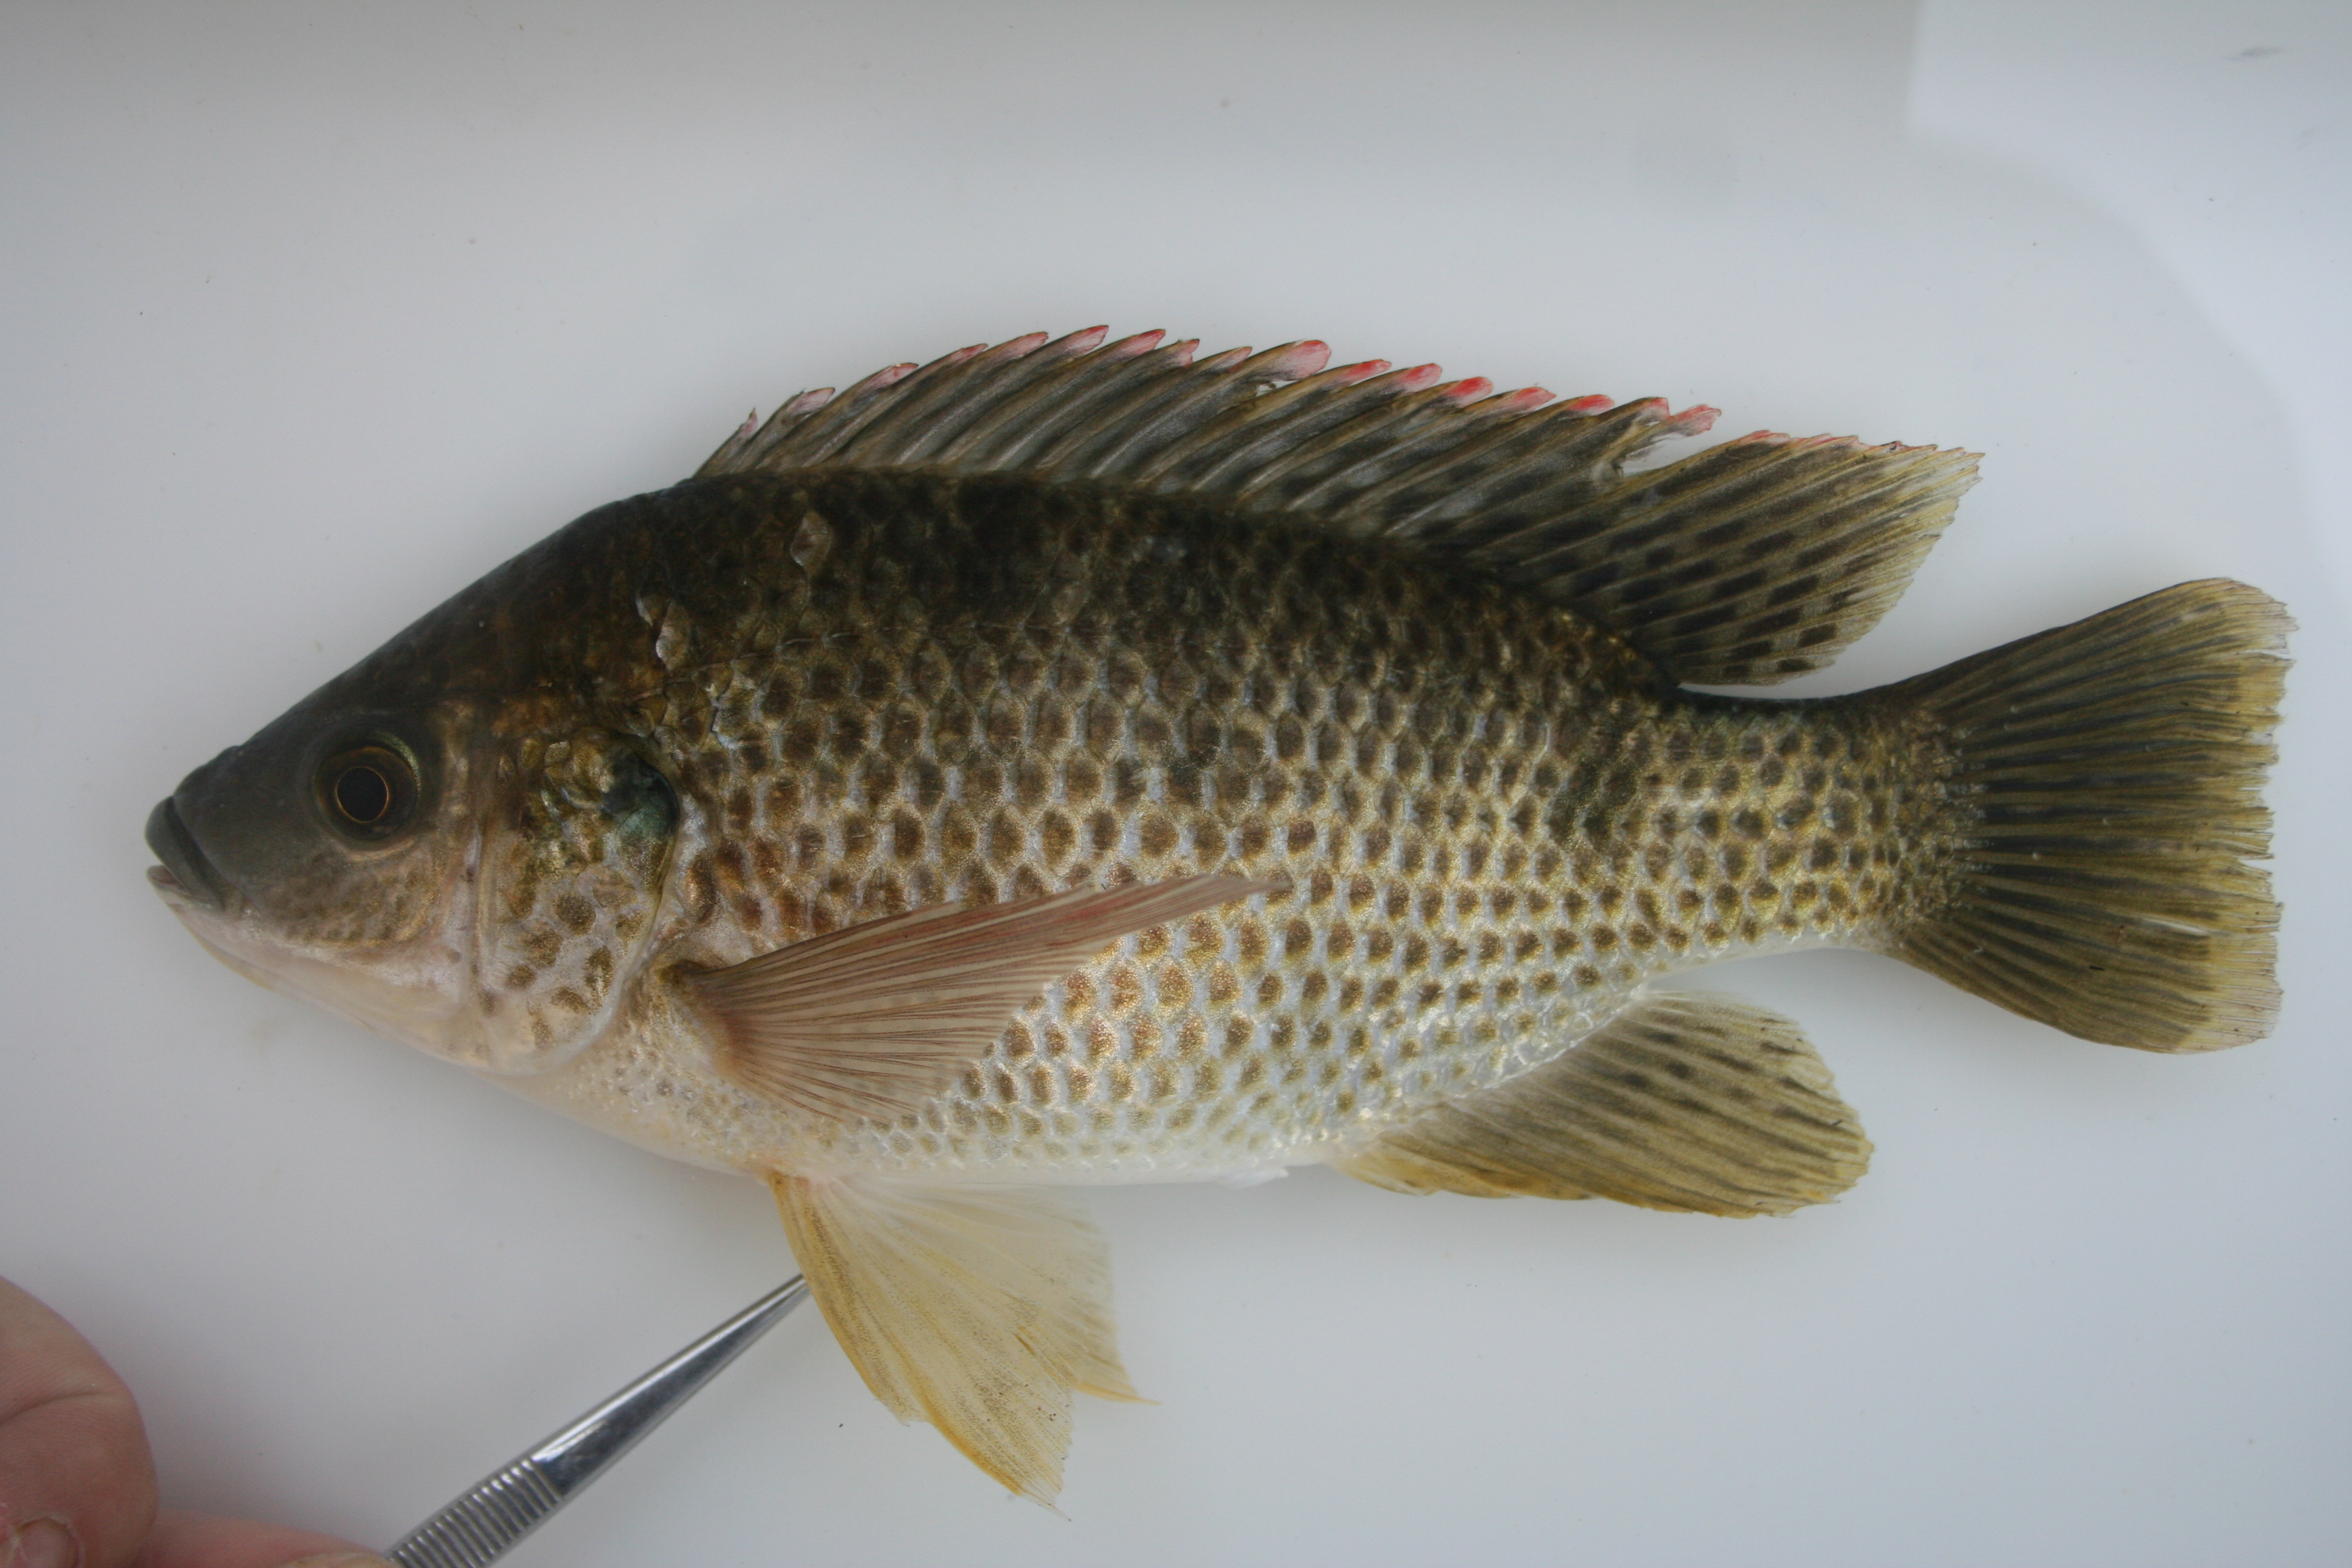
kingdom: Animalia
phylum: Chordata
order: Perciformes
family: Cichlidae
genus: Oreochromis
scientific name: Oreochromis
